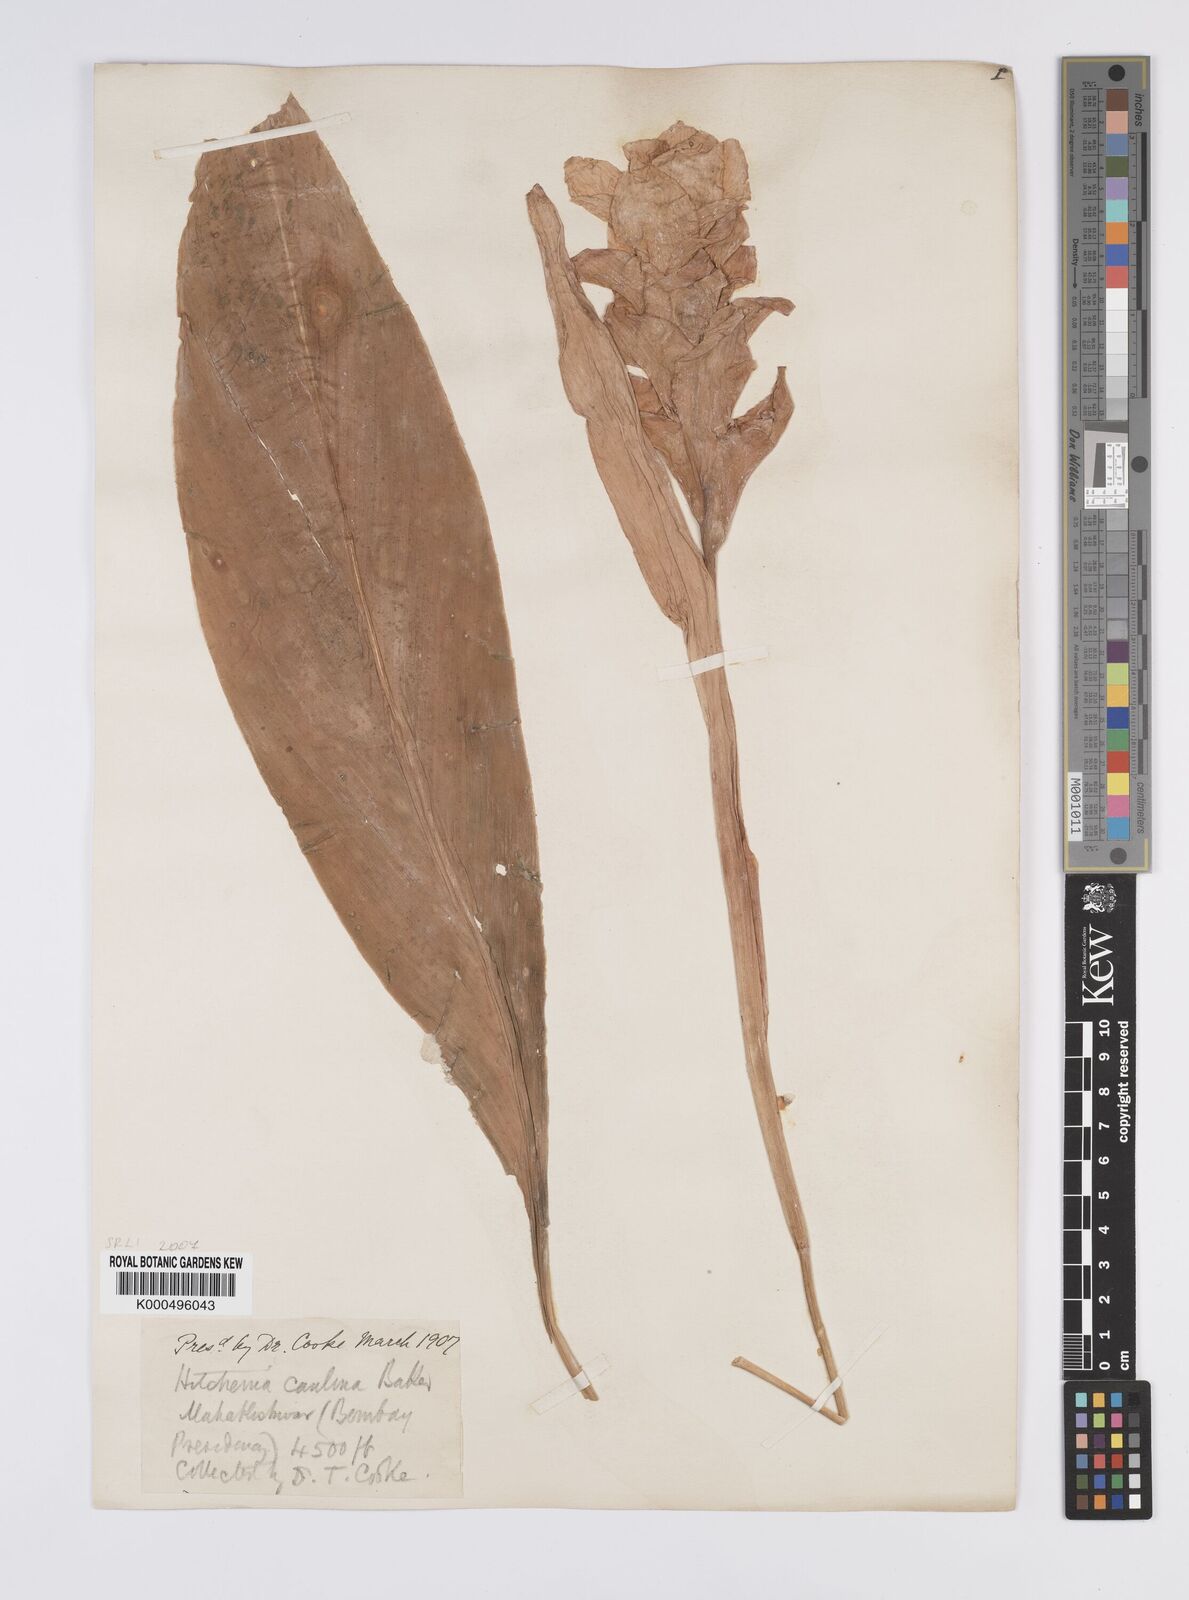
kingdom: Plantae
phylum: Tracheophyta
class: Liliopsida
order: Zingiberales
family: Zingiberaceae
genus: Curcuma
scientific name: Curcuma caulina
